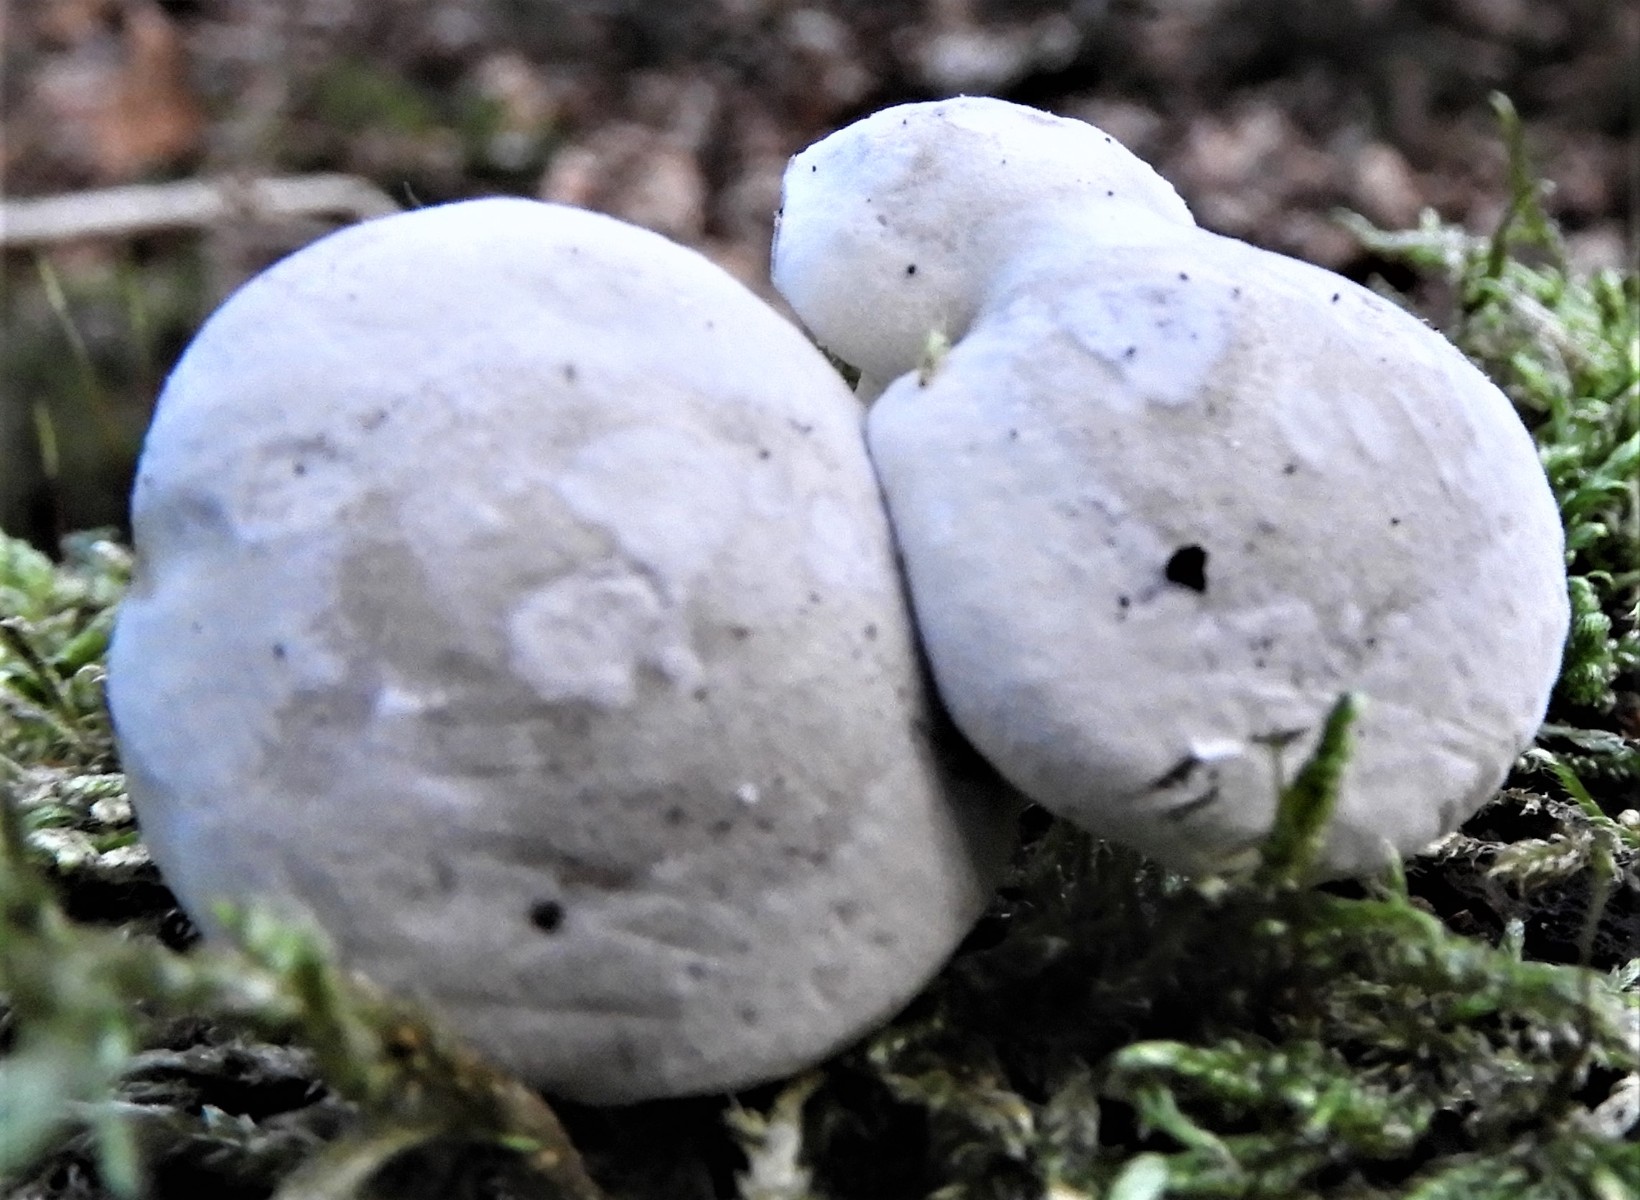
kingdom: Fungi
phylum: Basidiomycota
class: Agaricomycetes
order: Agaricales
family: Entolomataceae
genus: Clitopilus
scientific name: Clitopilus prunulus
